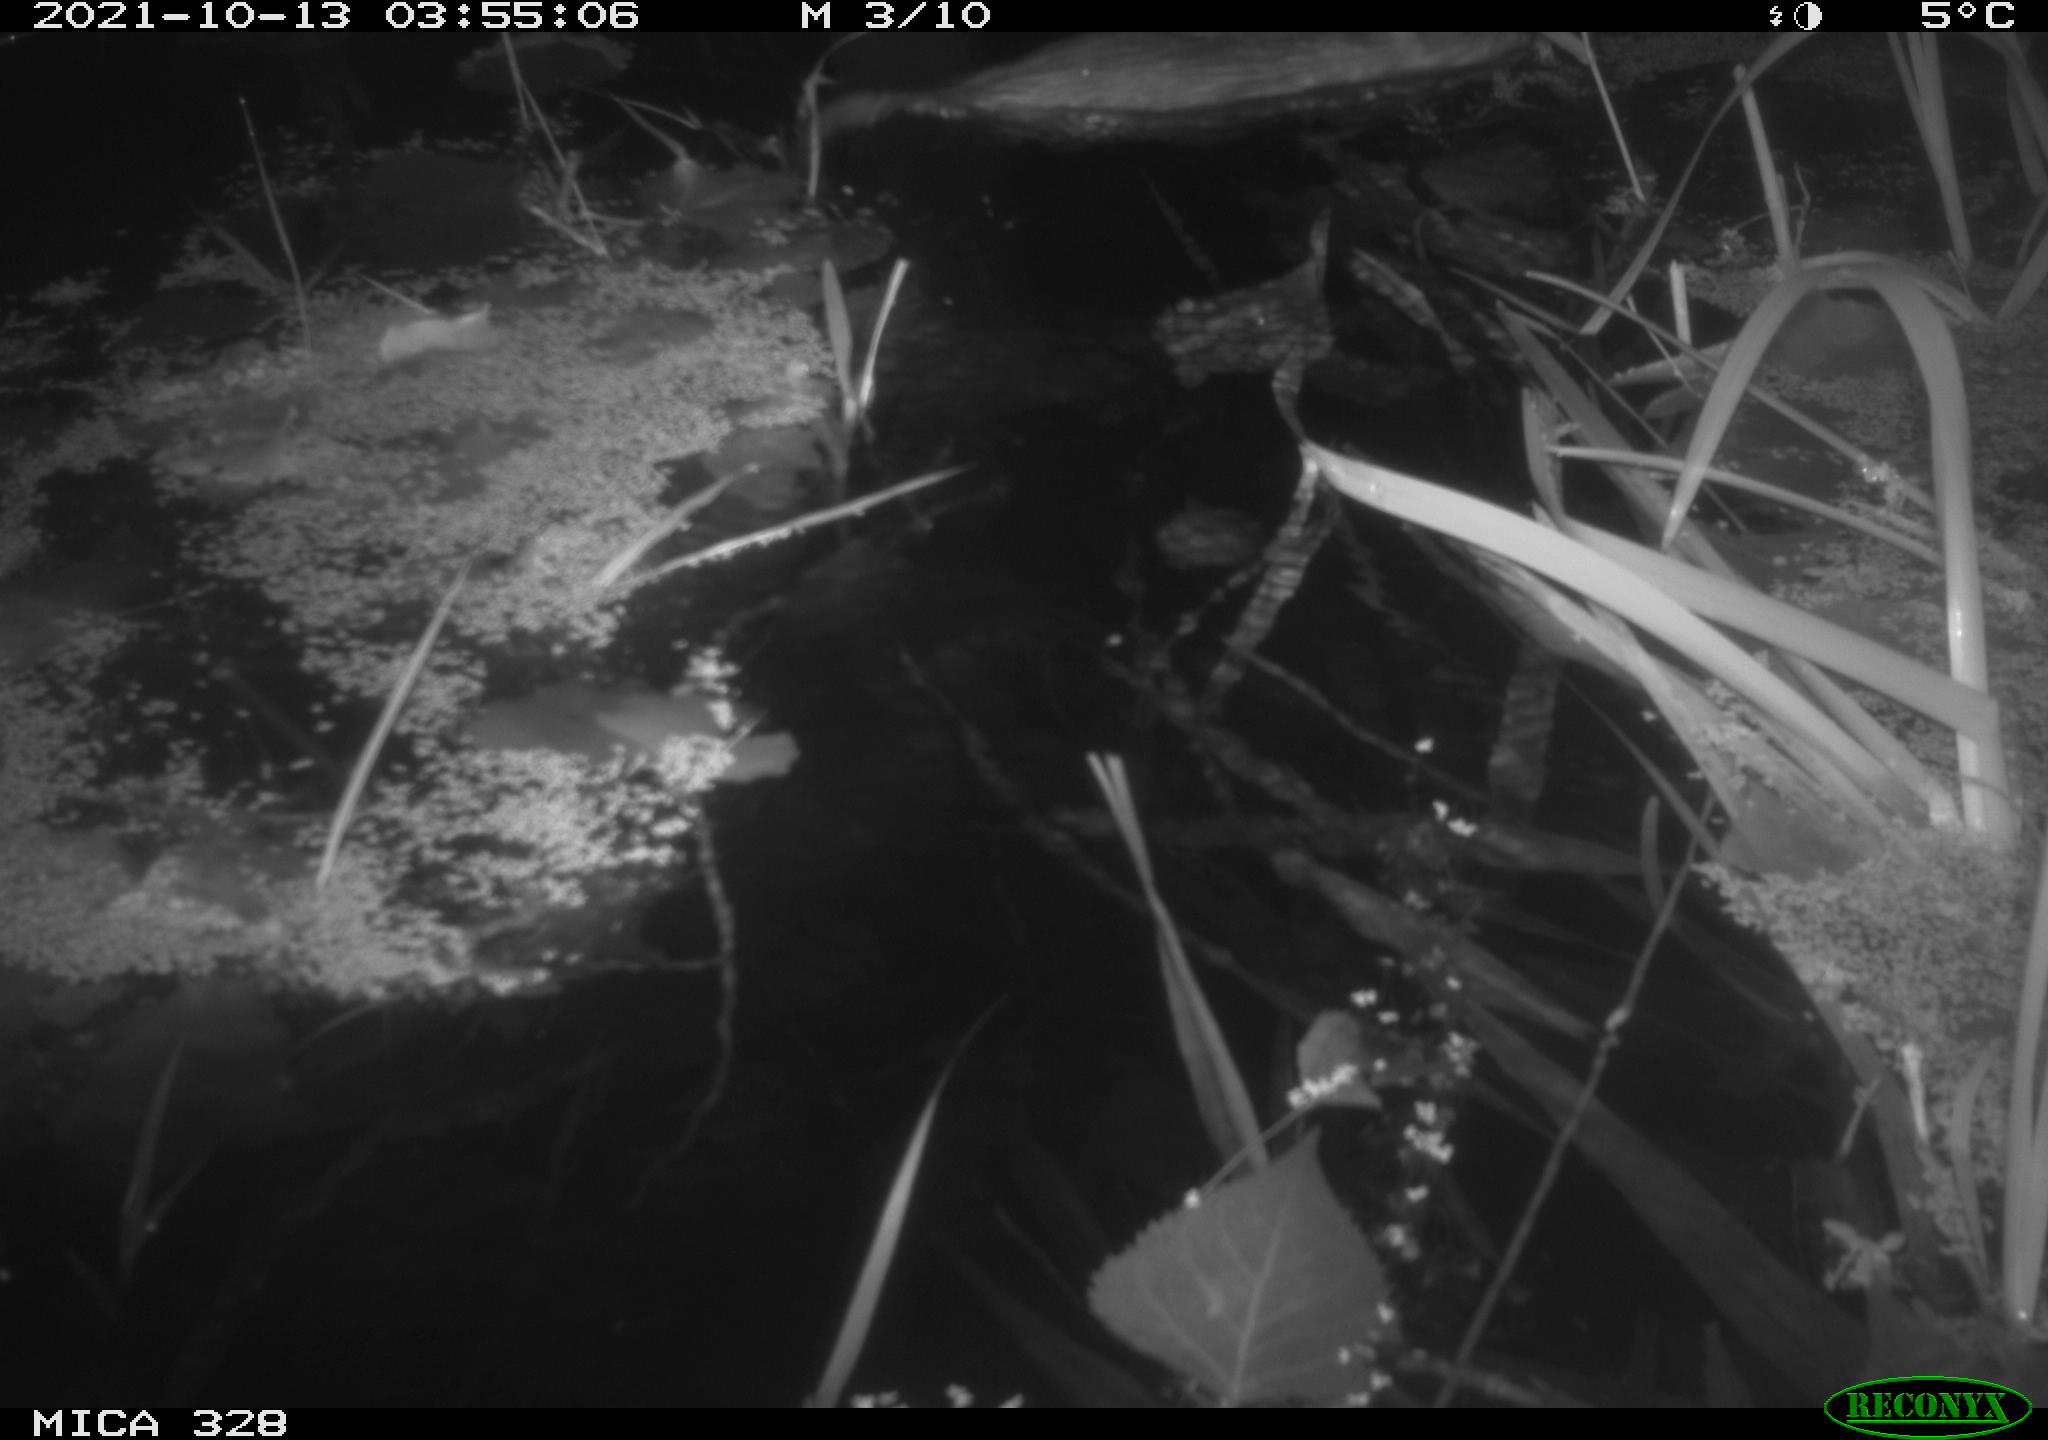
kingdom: Animalia
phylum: Chordata
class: Mammalia
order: Rodentia
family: Cricetidae
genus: Ondatra
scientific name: Ondatra zibethicus
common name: Muskrat
